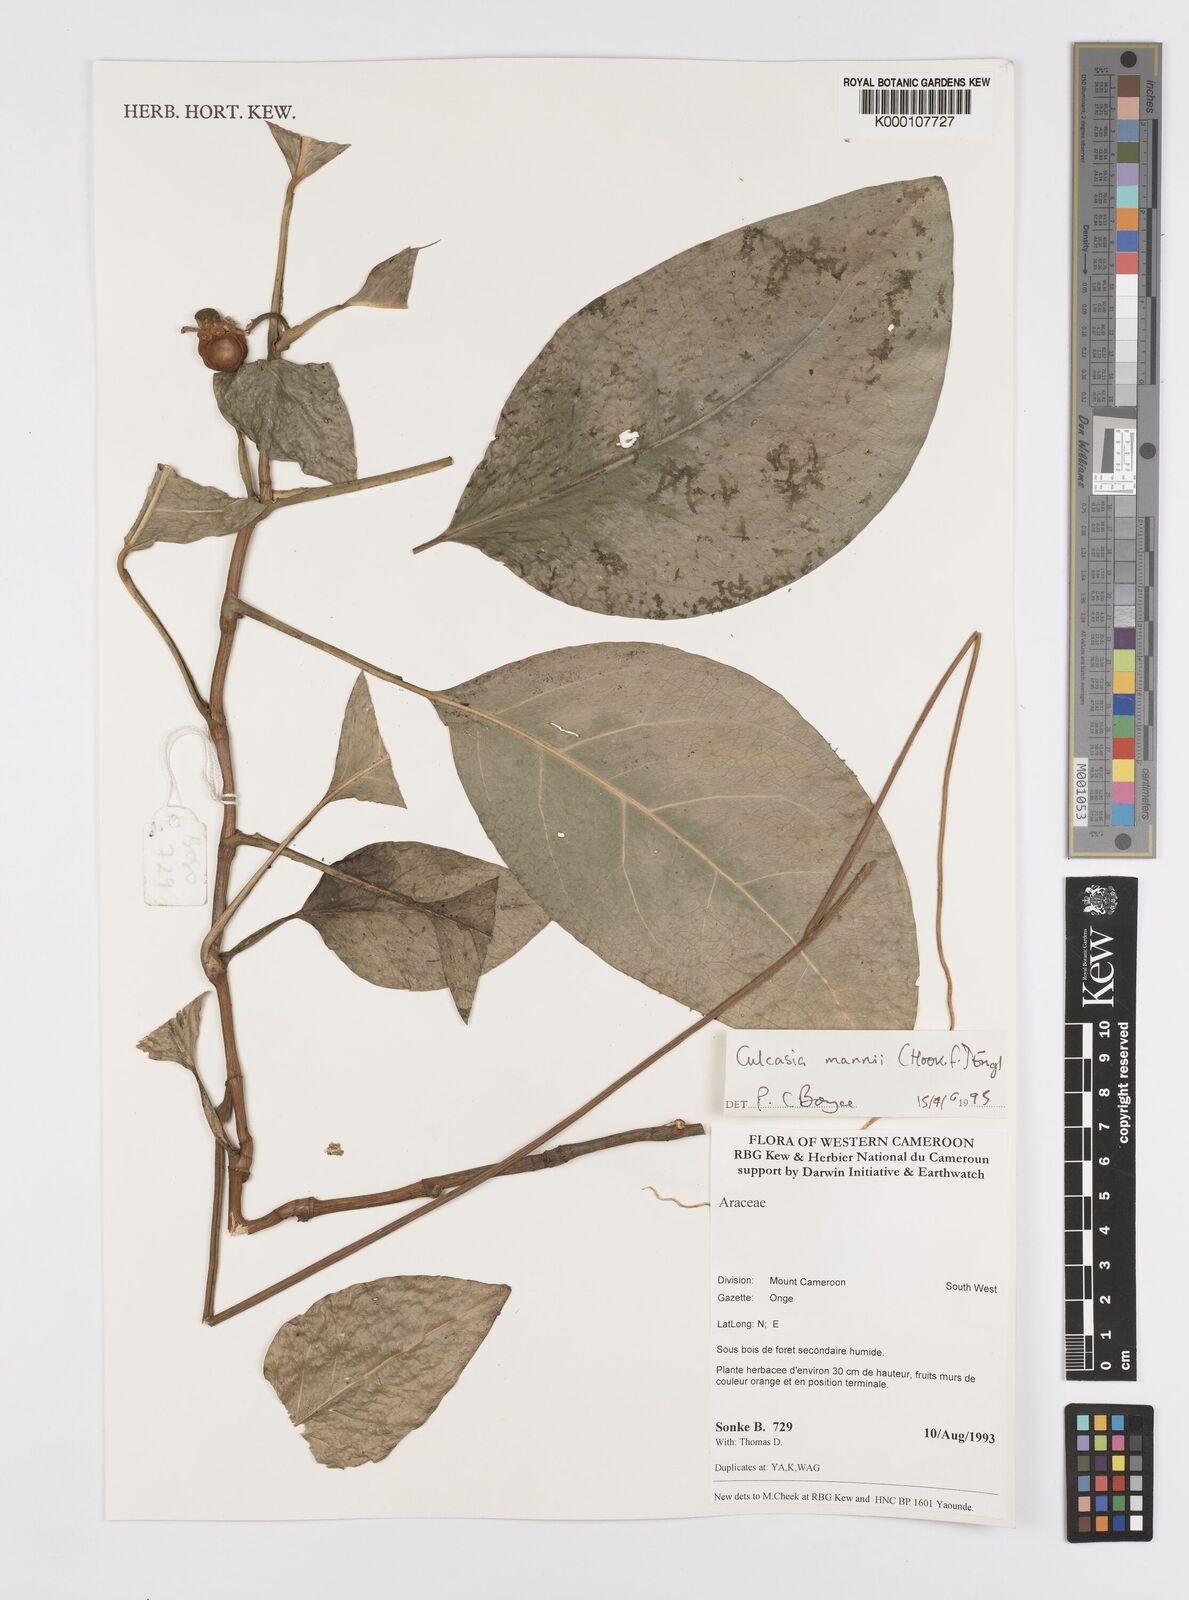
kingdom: Plantae
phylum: Tracheophyta
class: Liliopsida
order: Alismatales
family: Araceae
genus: Culcasia
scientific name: Culcasia mannii
